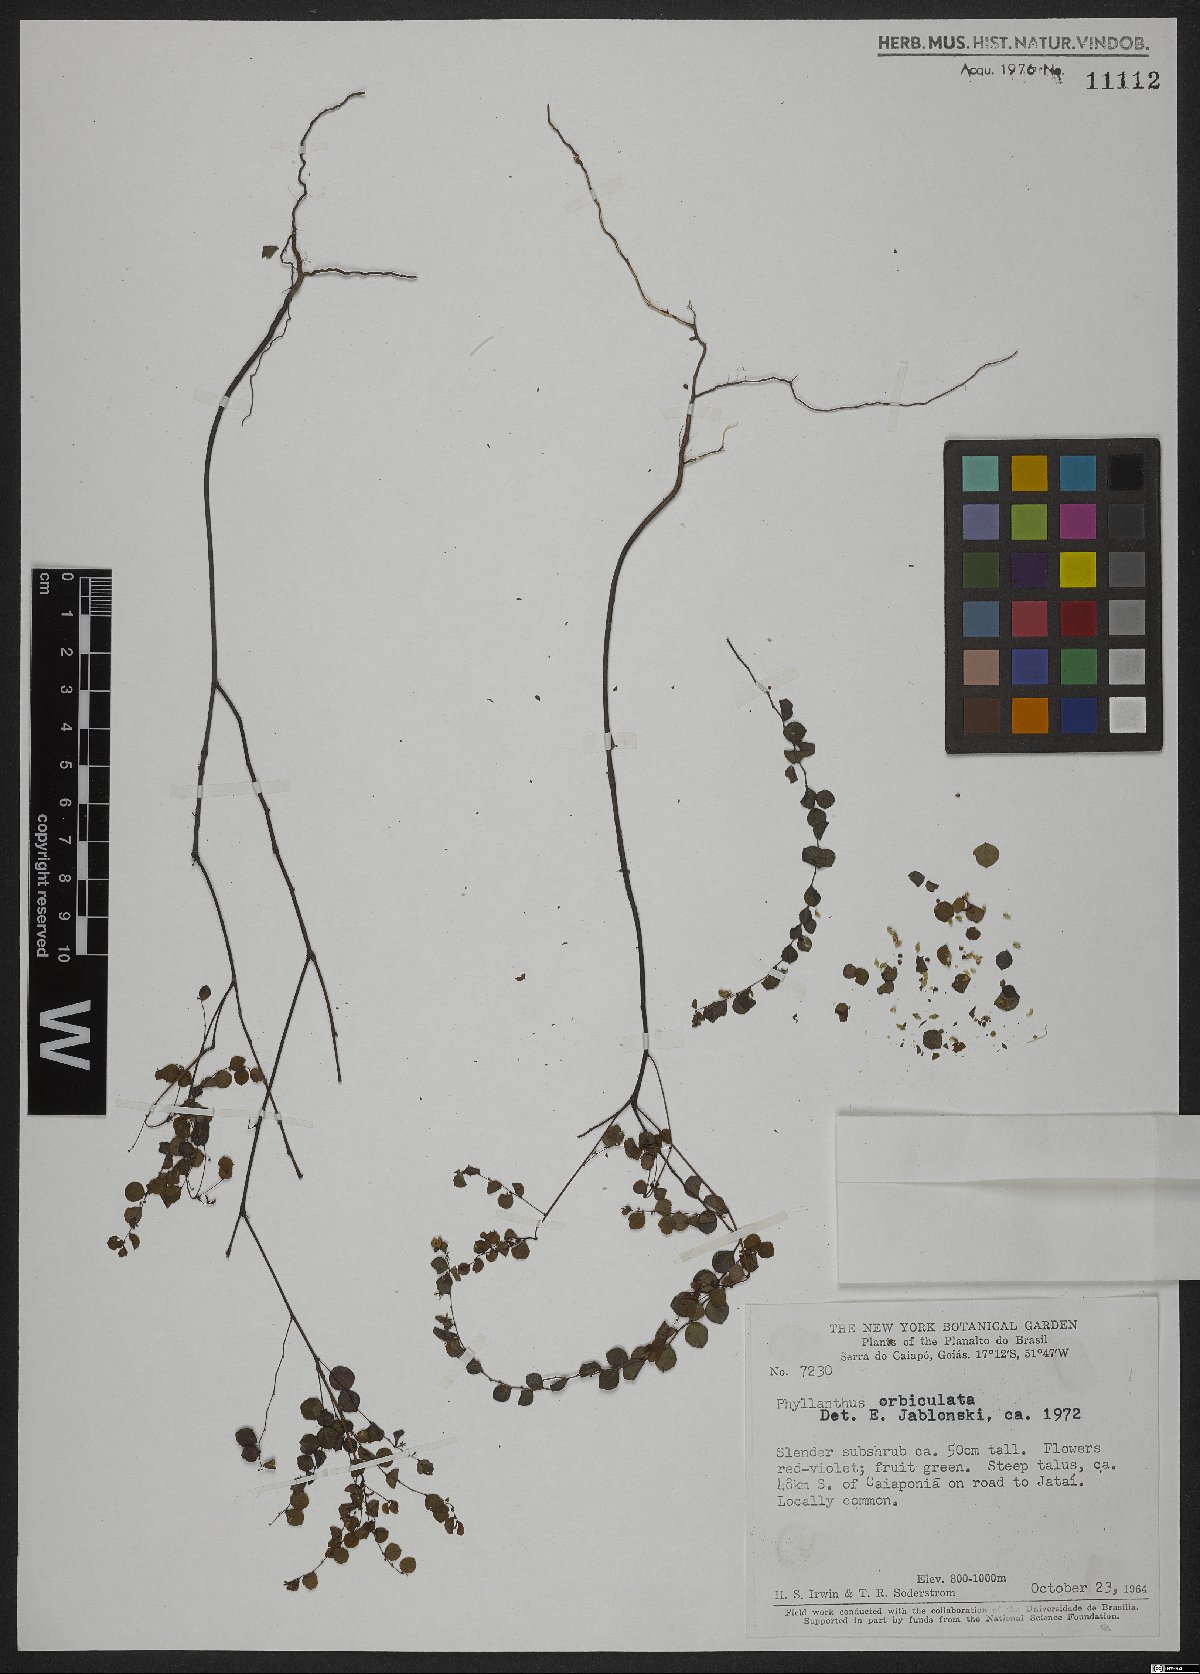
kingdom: Plantae
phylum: Tracheophyta
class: Magnoliopsida
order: Malpighiales
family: Phyllanthaceae
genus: Phyllanthus
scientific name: Phyllanthus orbiculatus
